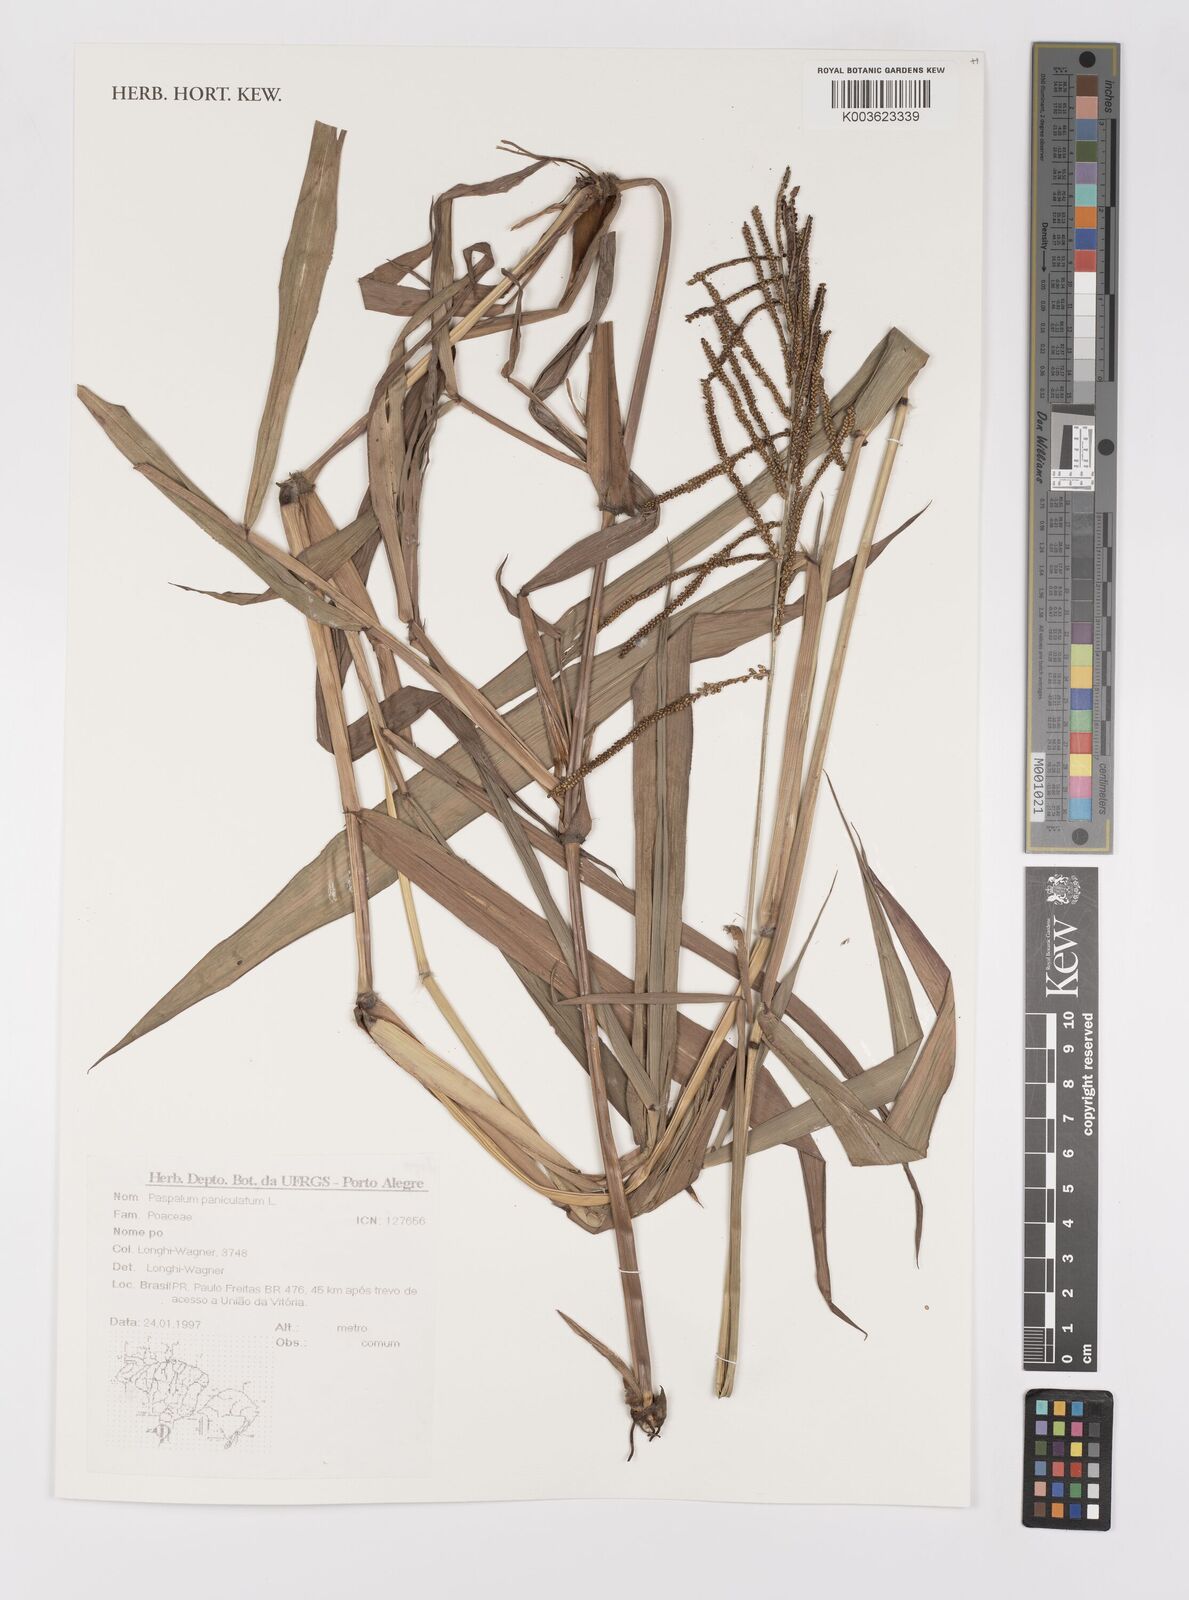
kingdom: Plantae
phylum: Tracheophyta
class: Liliopsida
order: Poales
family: Poaceae
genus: Paspalum
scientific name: Paspalum paniculatum
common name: Arrocillo
